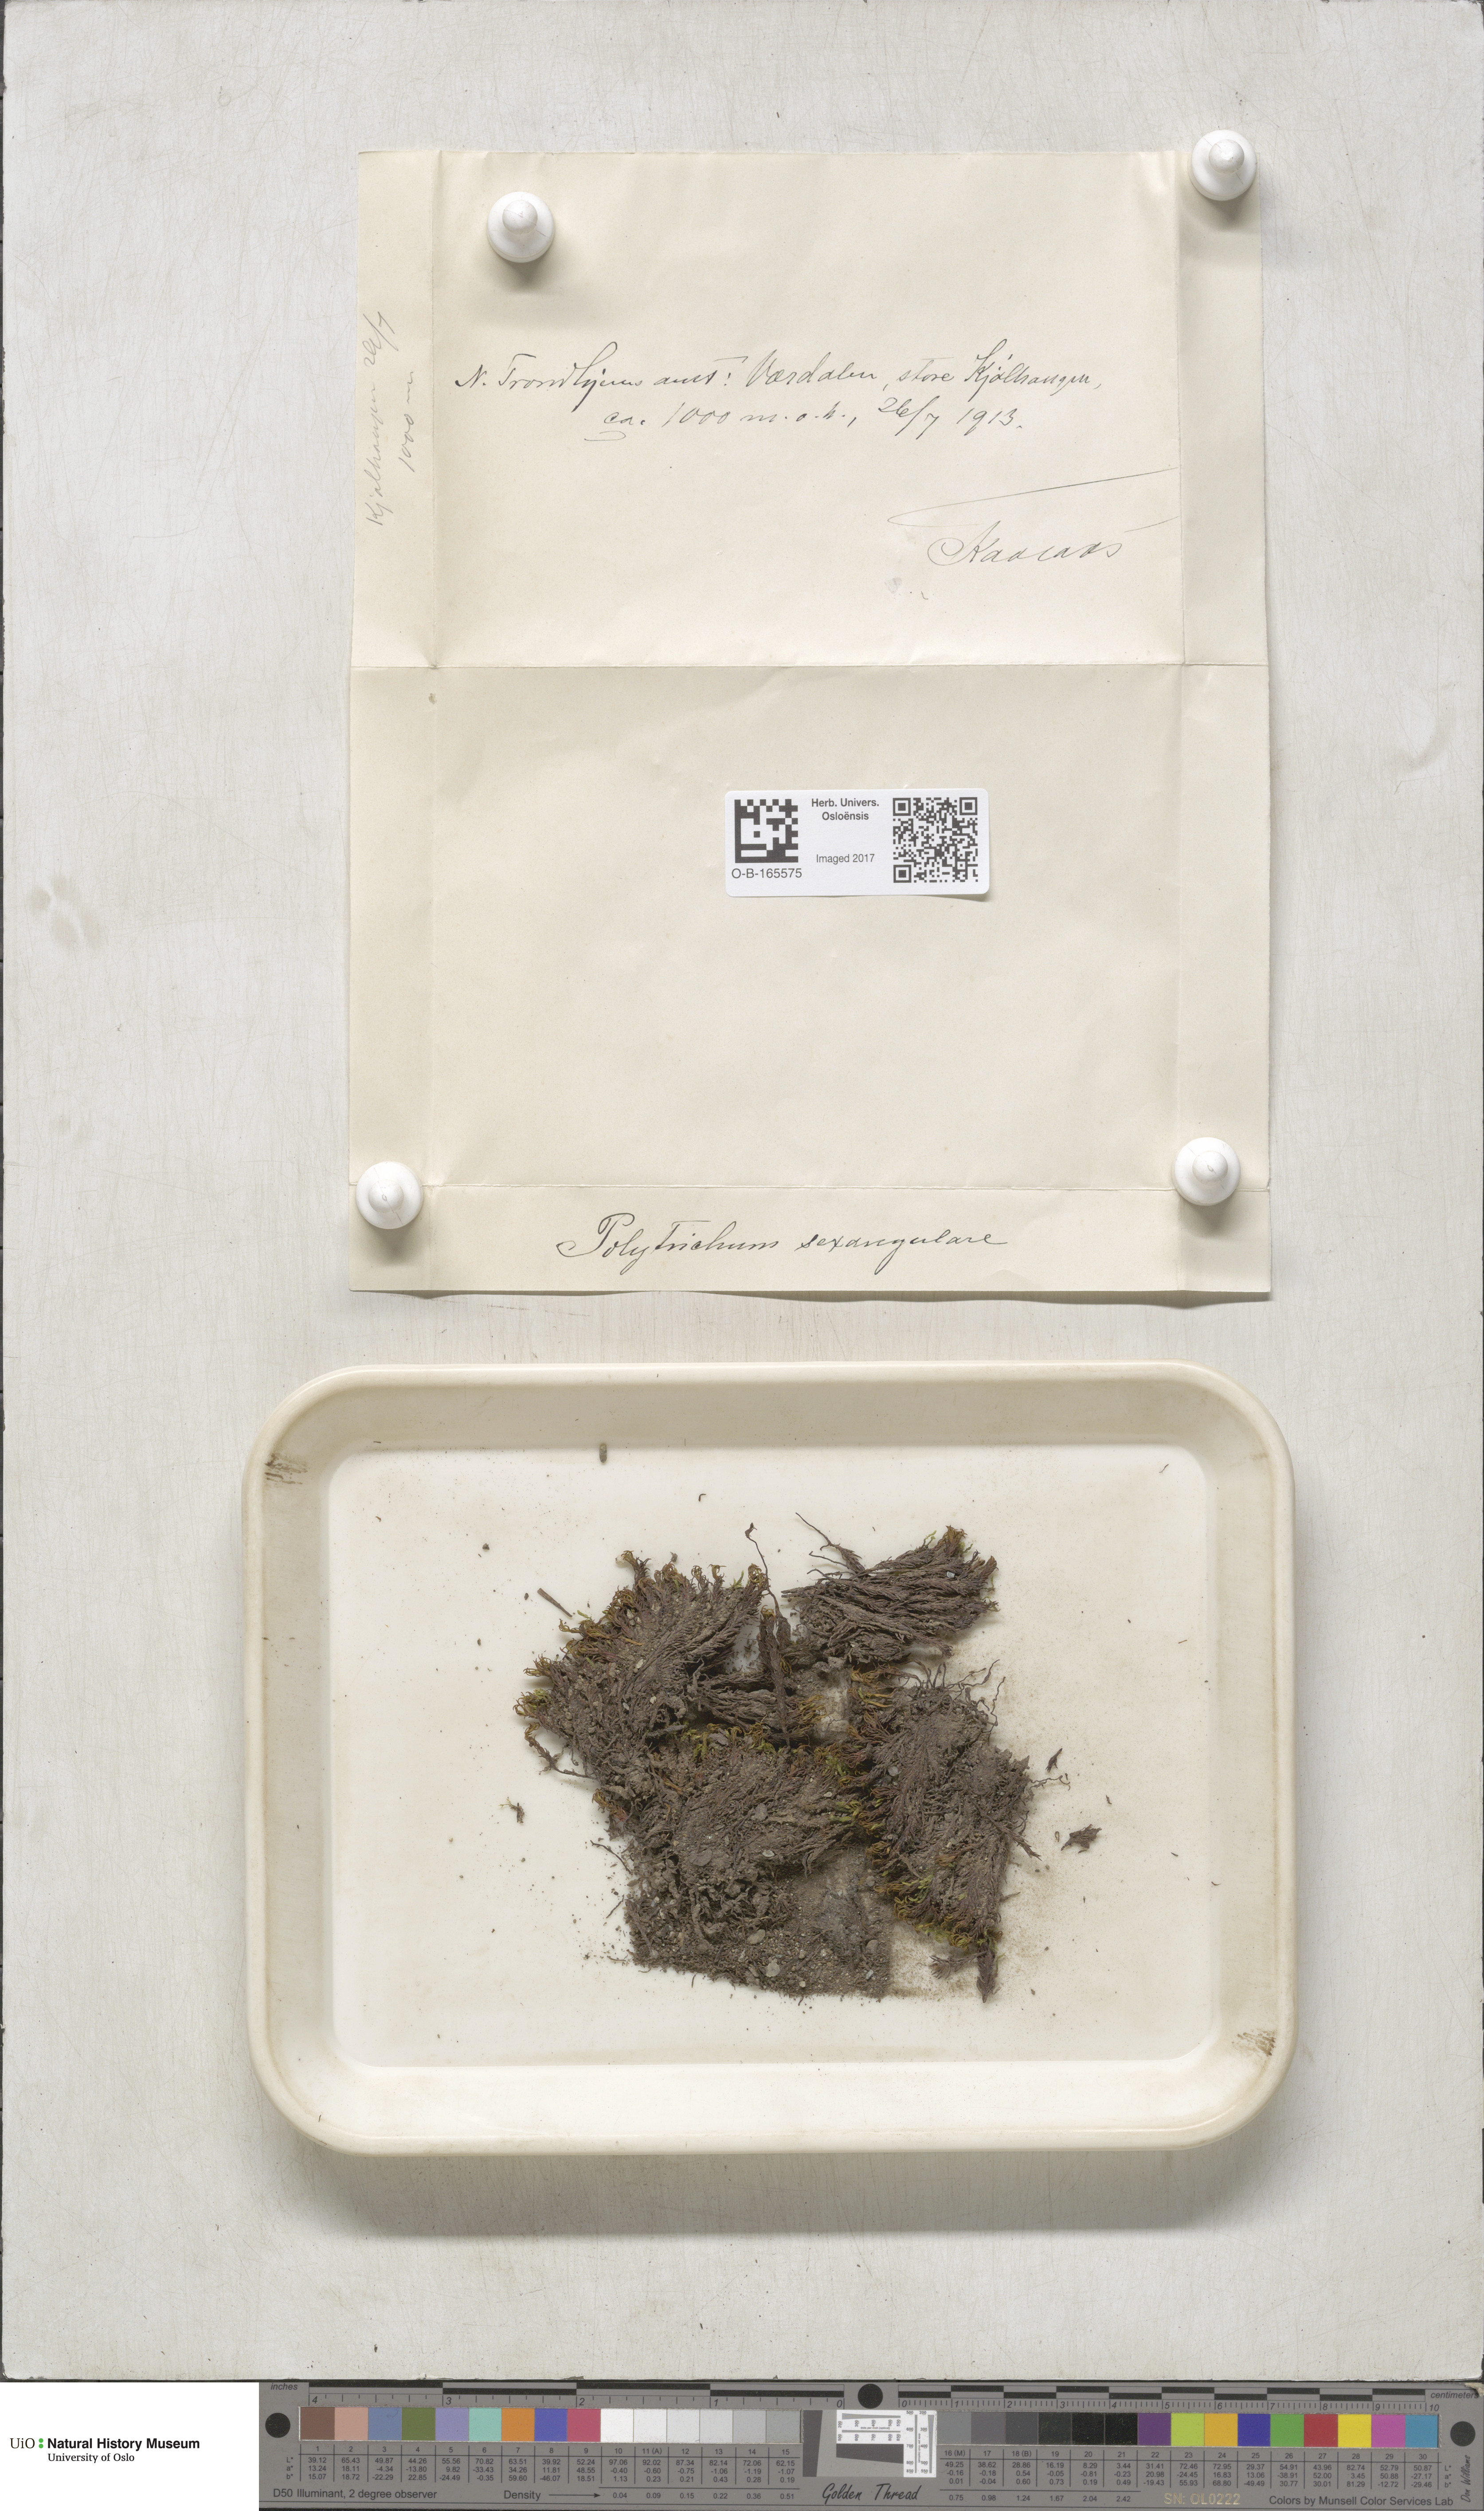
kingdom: Plantae
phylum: Bryophyta
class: Polytrichopsida
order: Polytrichales
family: Polytrichaceae
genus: Polytrichastrum
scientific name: Polytrichastrum sexangulare
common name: Northern haircap
